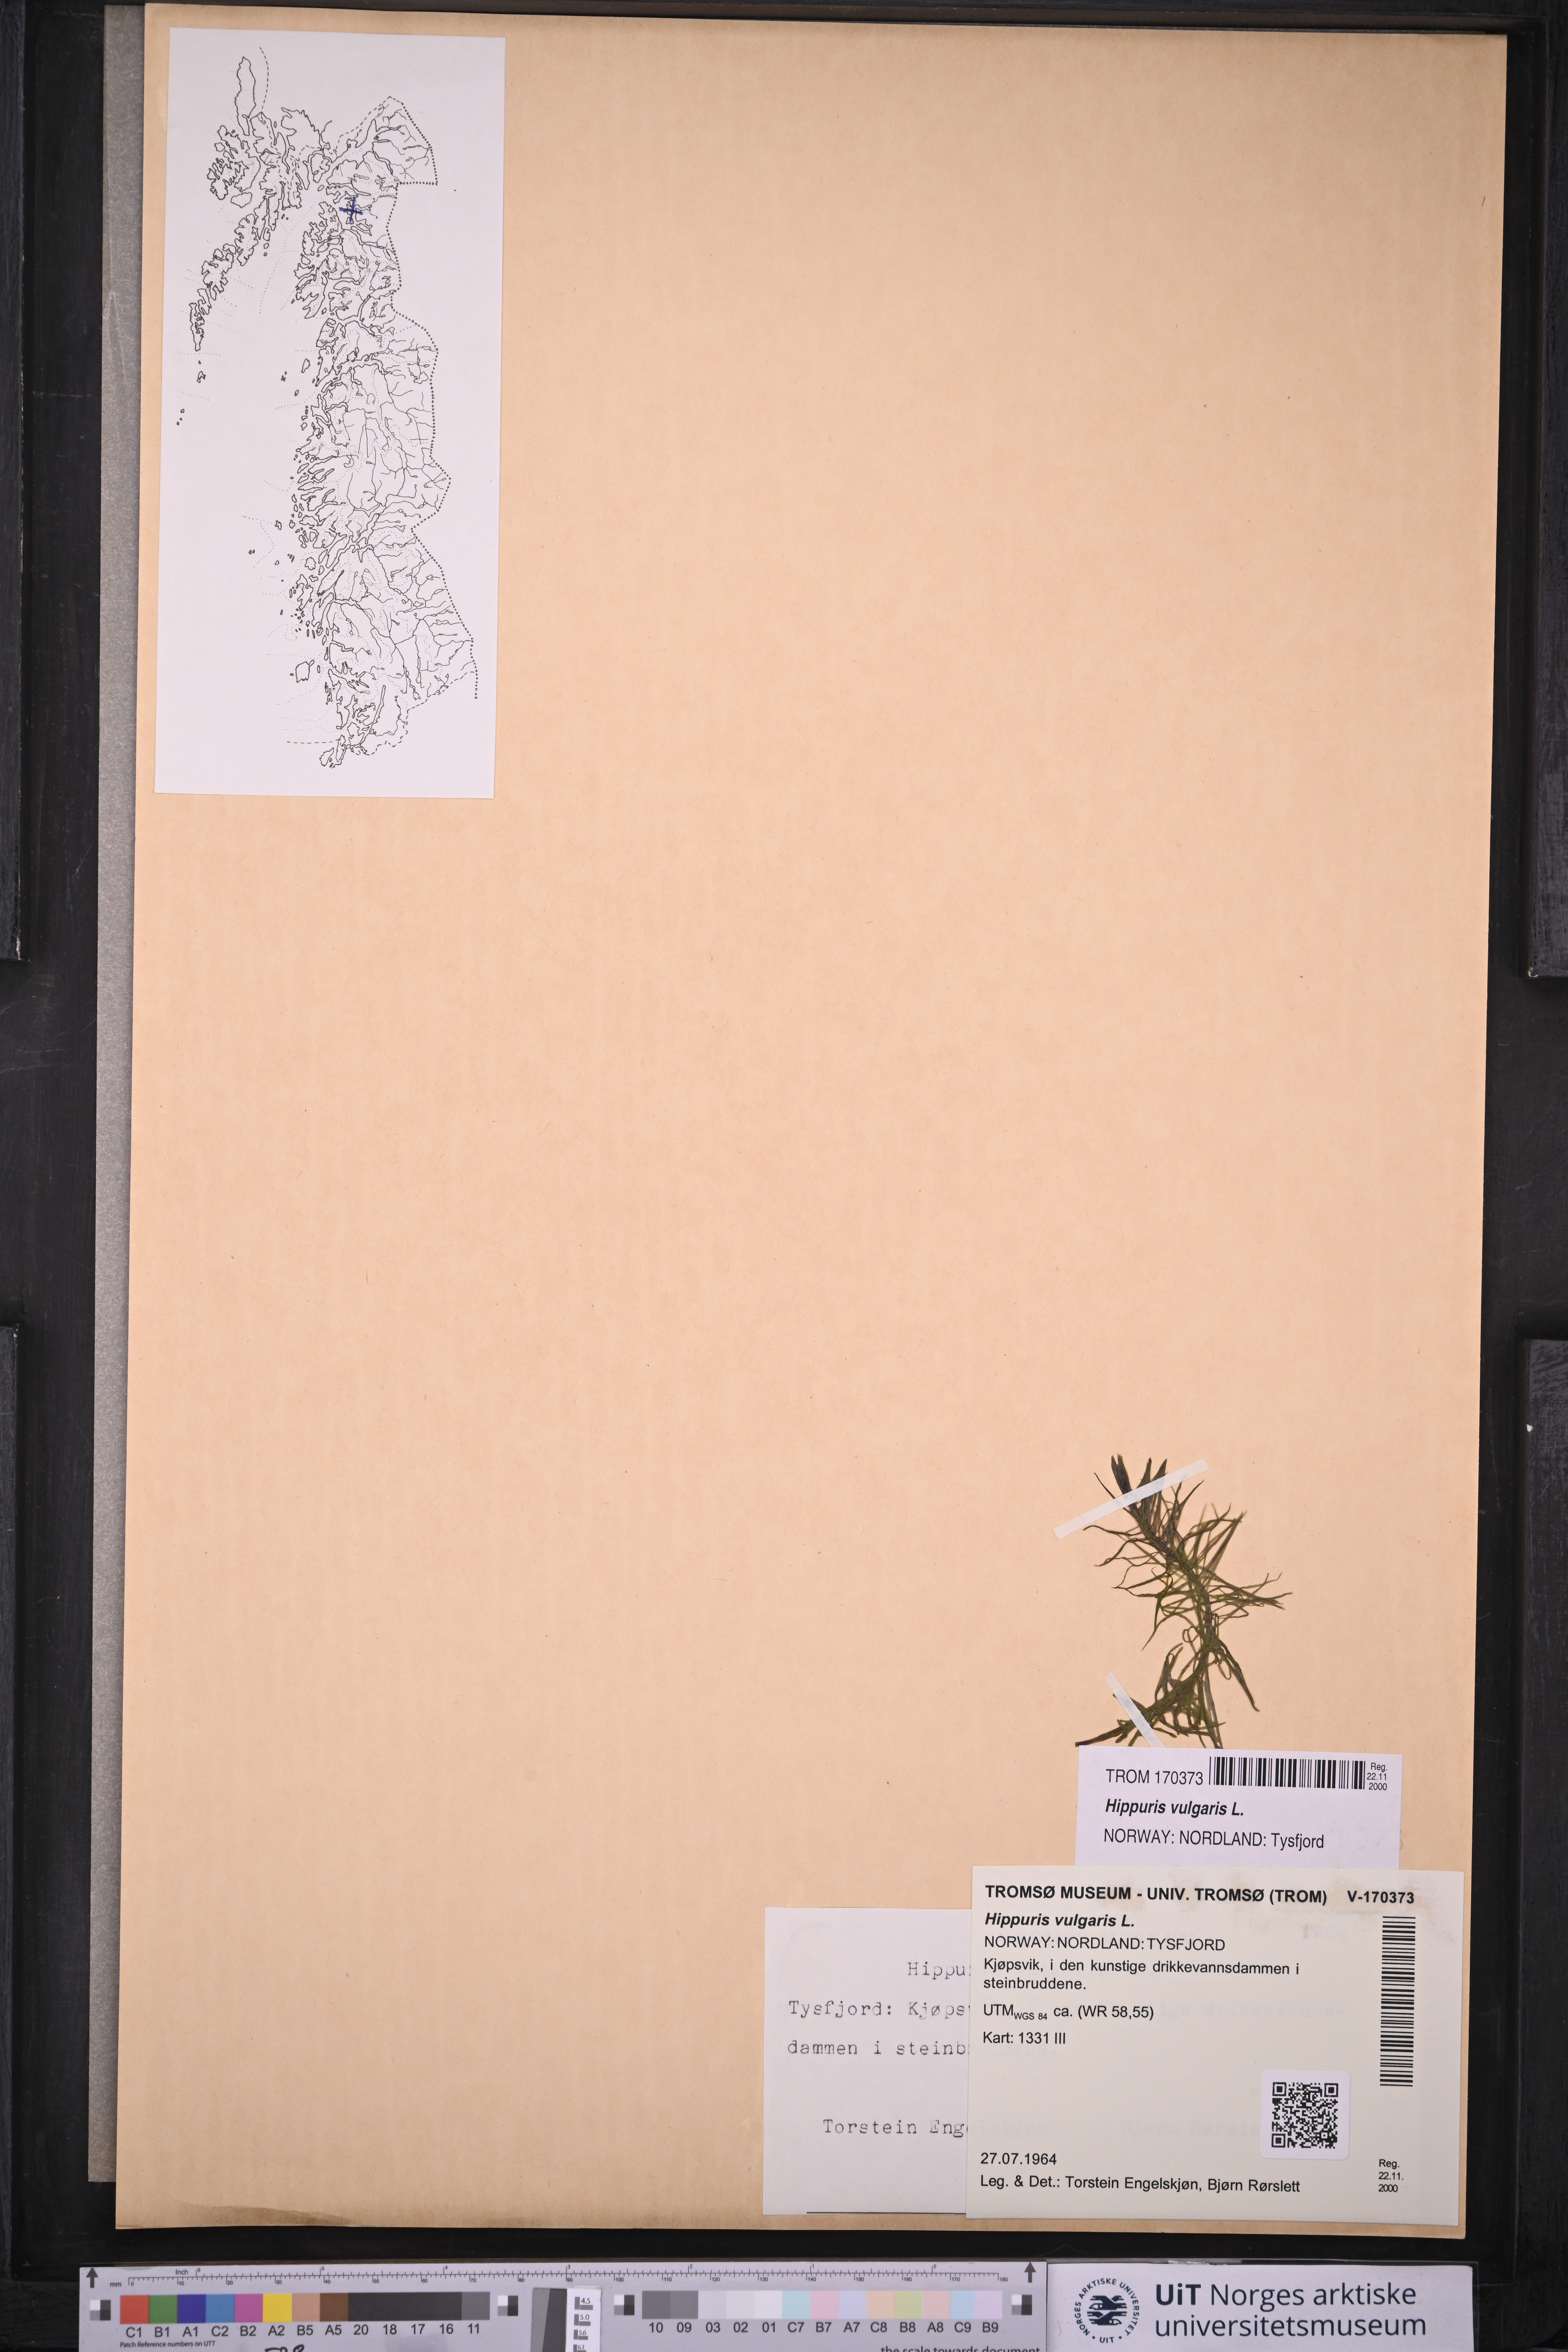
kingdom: Plantae
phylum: Tracheophyta
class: Magnoliopsida
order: Lamiales
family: Plantaginaceae
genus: Hippuris
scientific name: Hippuris vulgaris
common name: Mare's-tail
